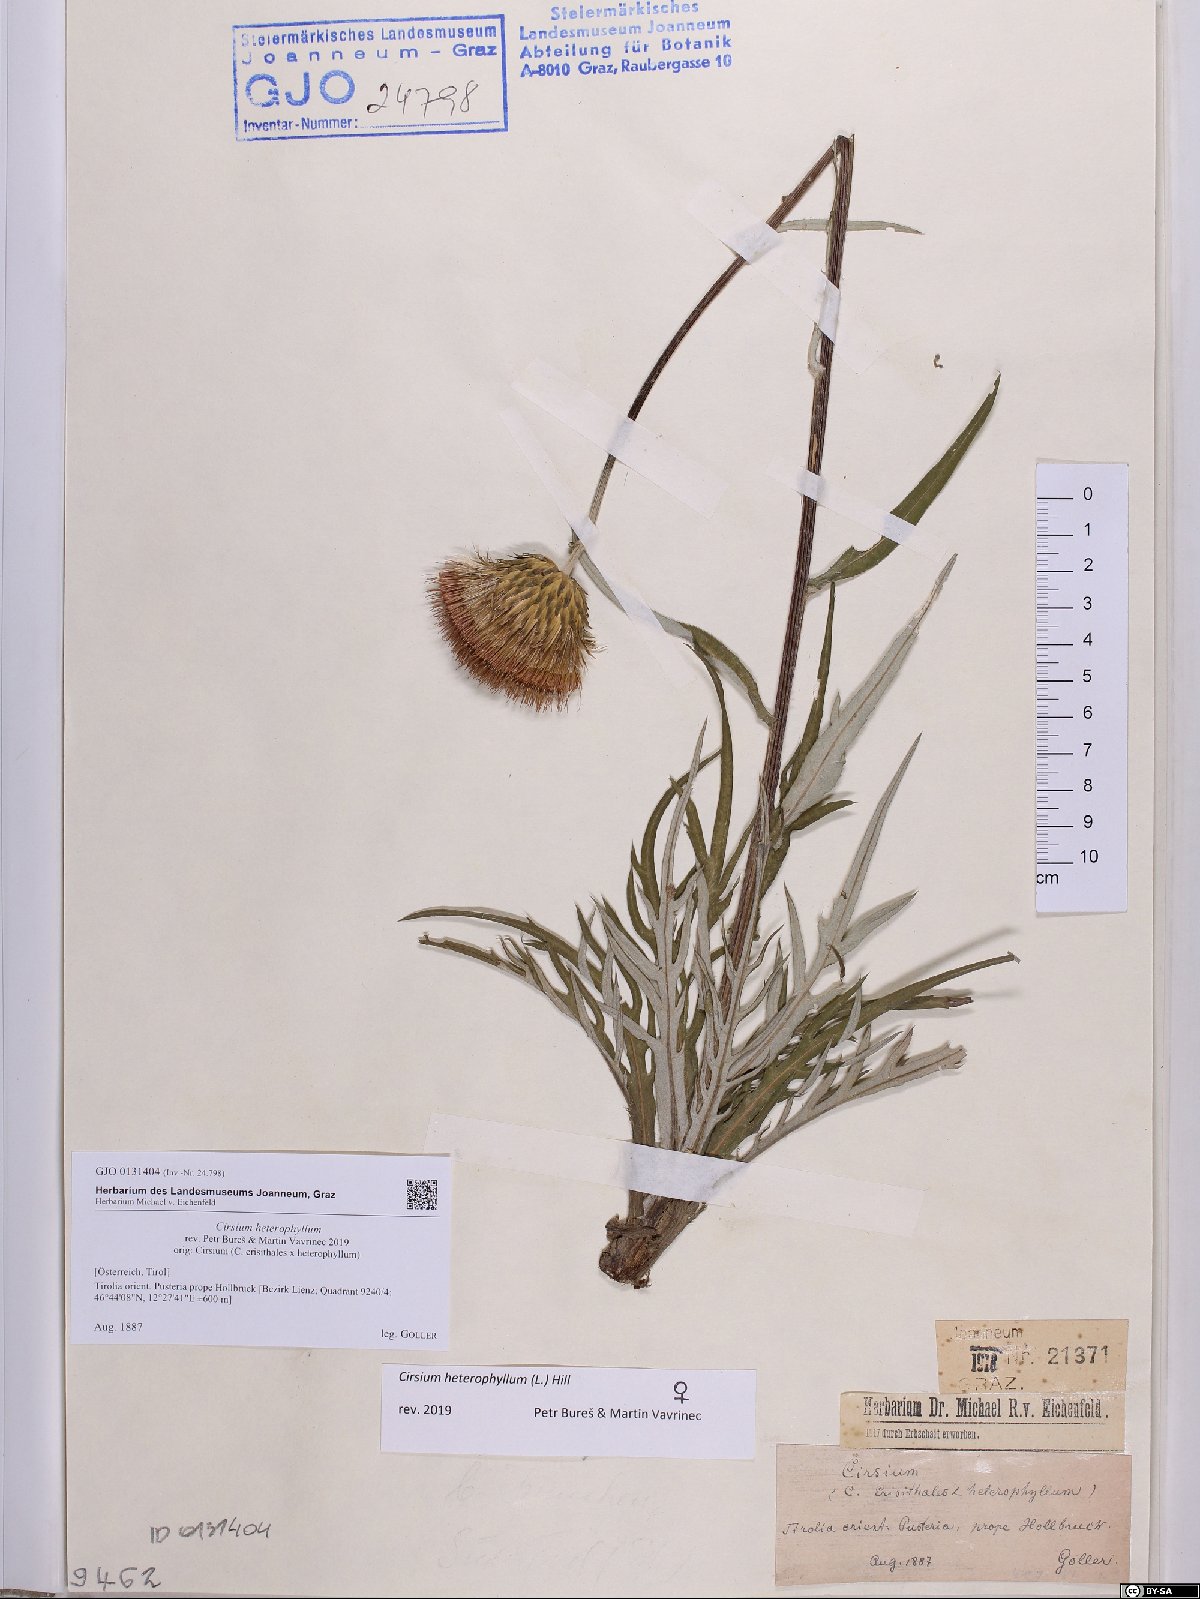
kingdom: Plantae
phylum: Tracheophyta
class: Magnoliopsida
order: Asterales
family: Asteraceae
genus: Cirsium
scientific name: Cirsium heterophyllum
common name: Melancholy thistle
